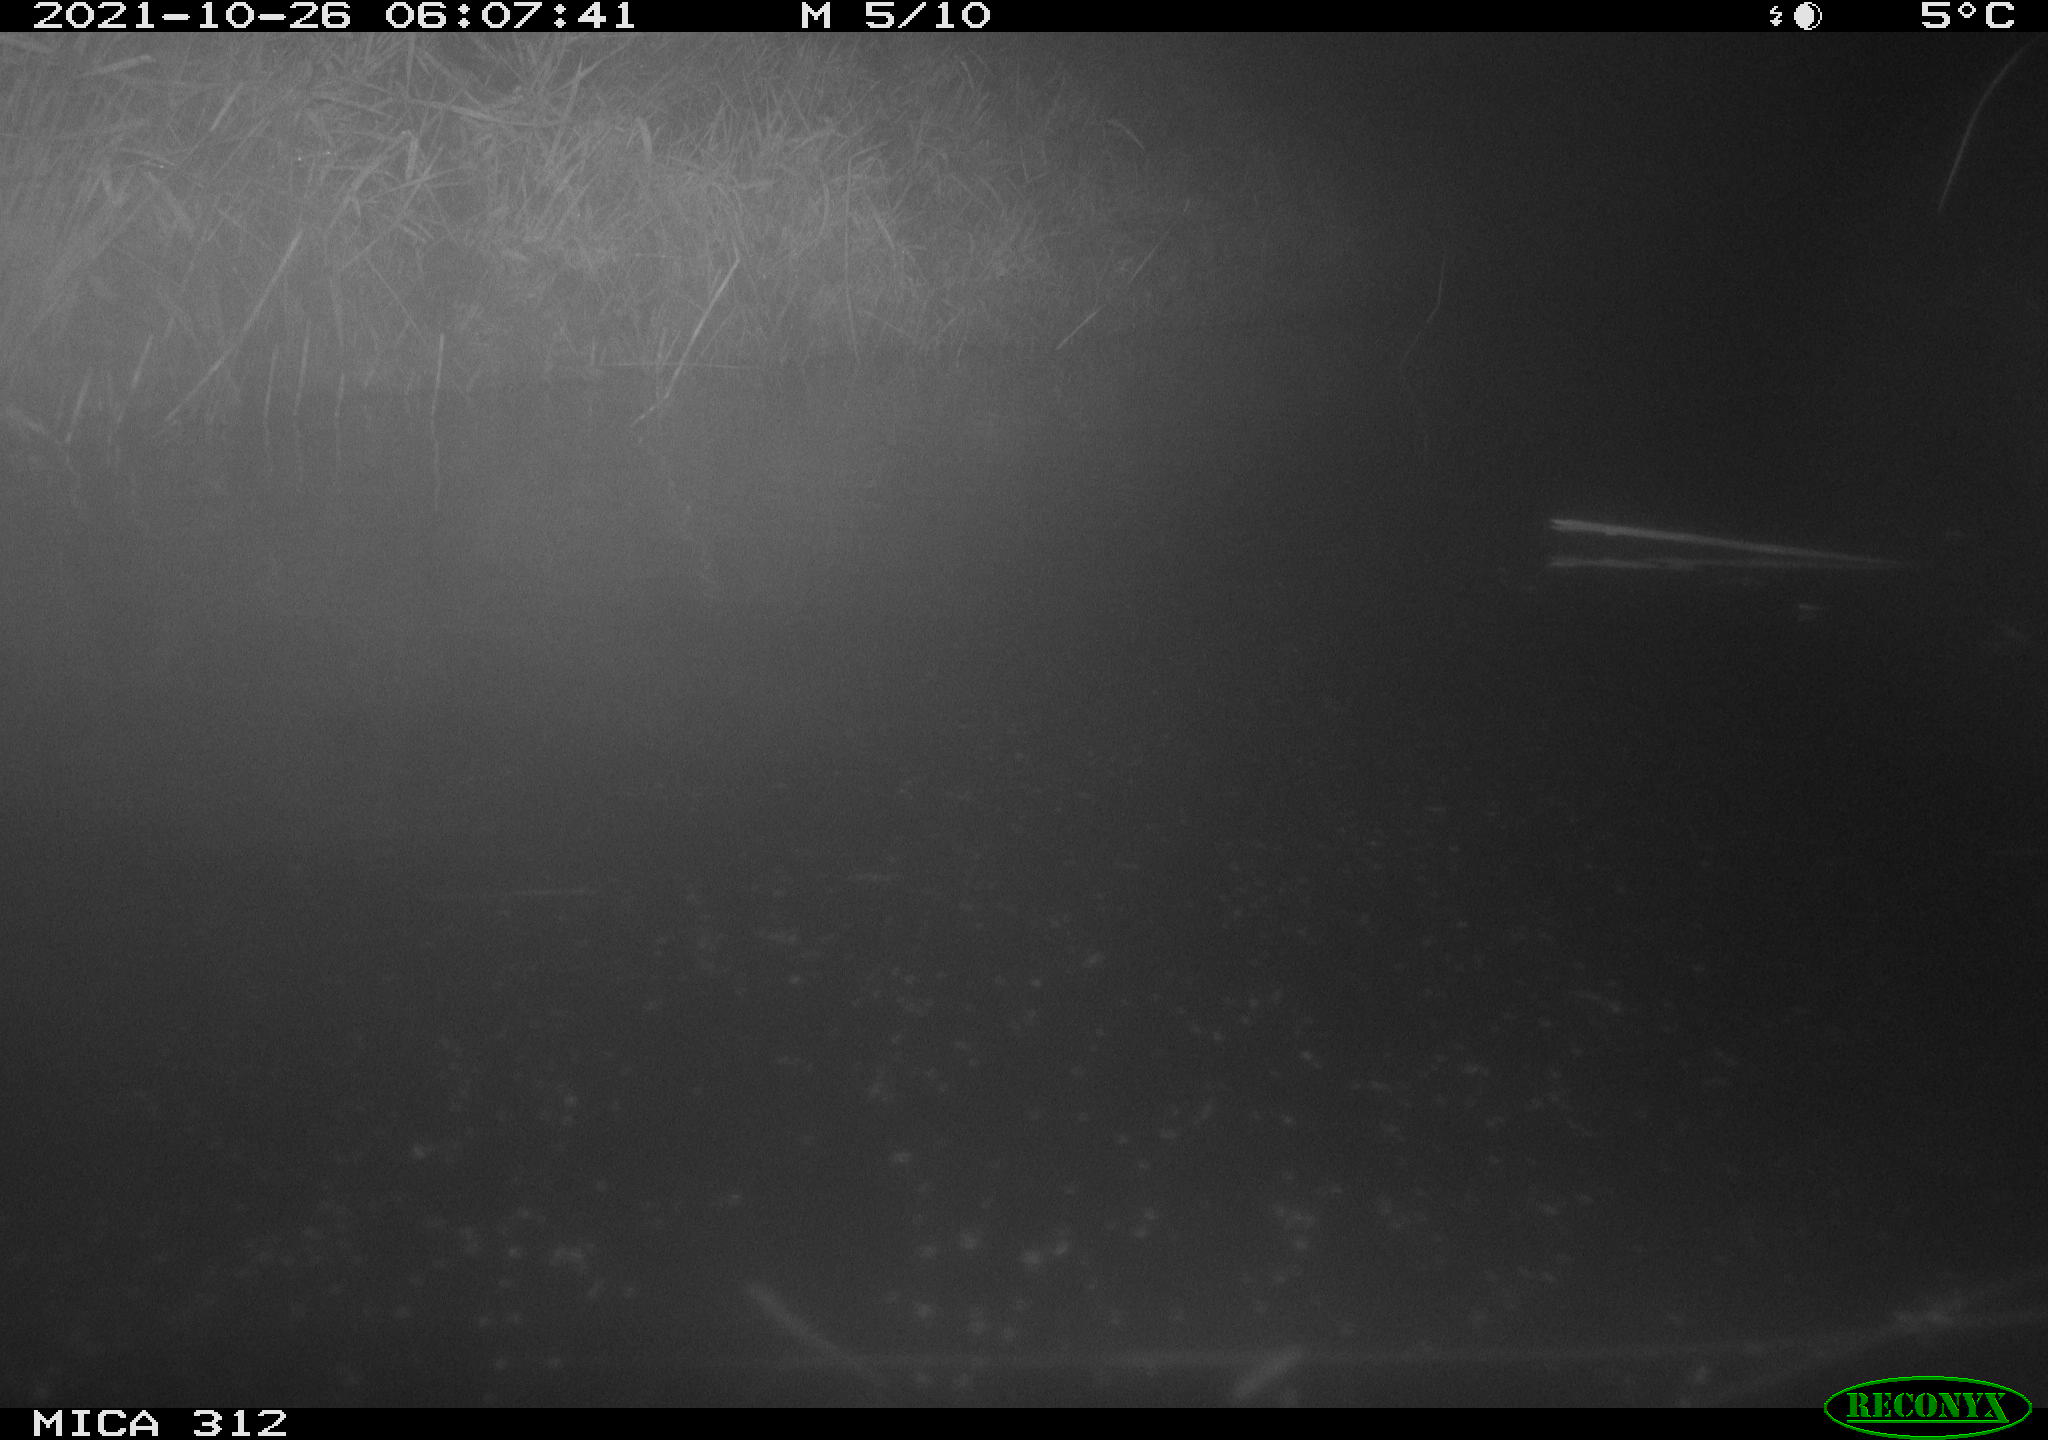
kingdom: Animalia
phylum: Chordata
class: Mammalia
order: Rodentia
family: Cricetidae
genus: Ondatra
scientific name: Ondatra zibethicus
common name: Muskrat
